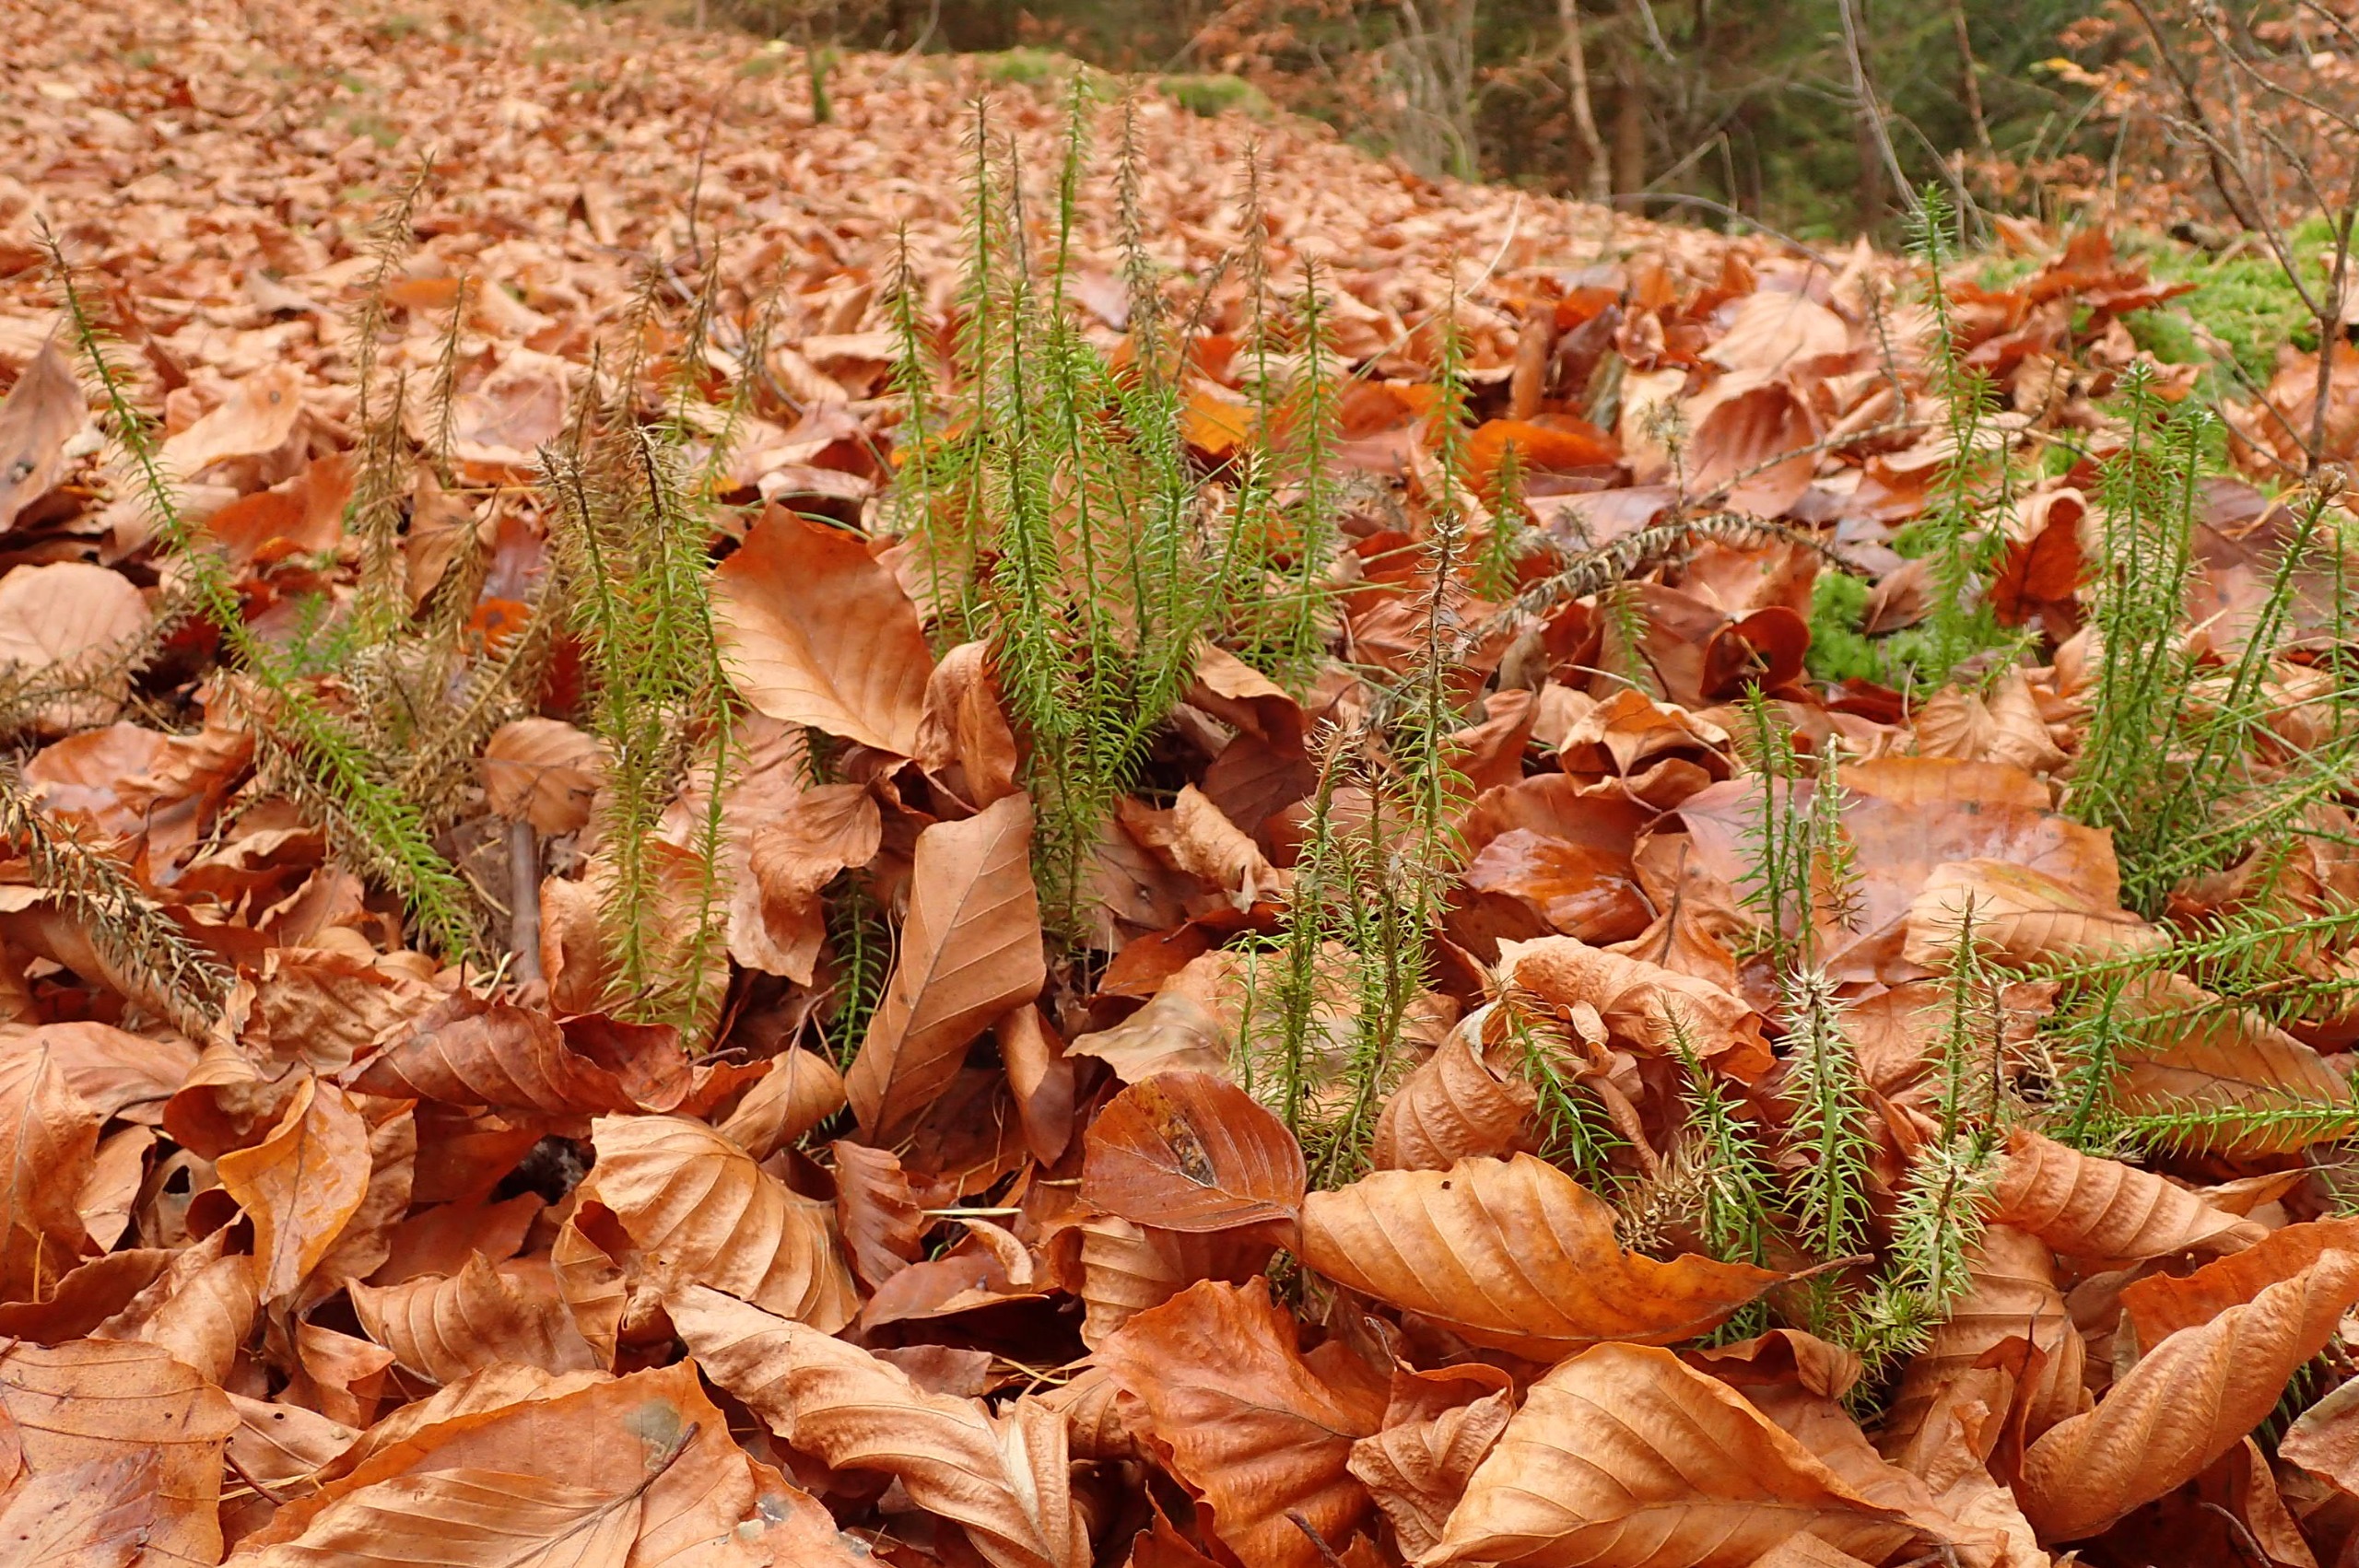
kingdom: Plantae
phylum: Tracheophyta
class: Lycopodiopsida
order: Lycopodiales
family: Lycopodiaceae
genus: Spinulum
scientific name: Spinulum annotinum
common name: Femradet ulvefod
